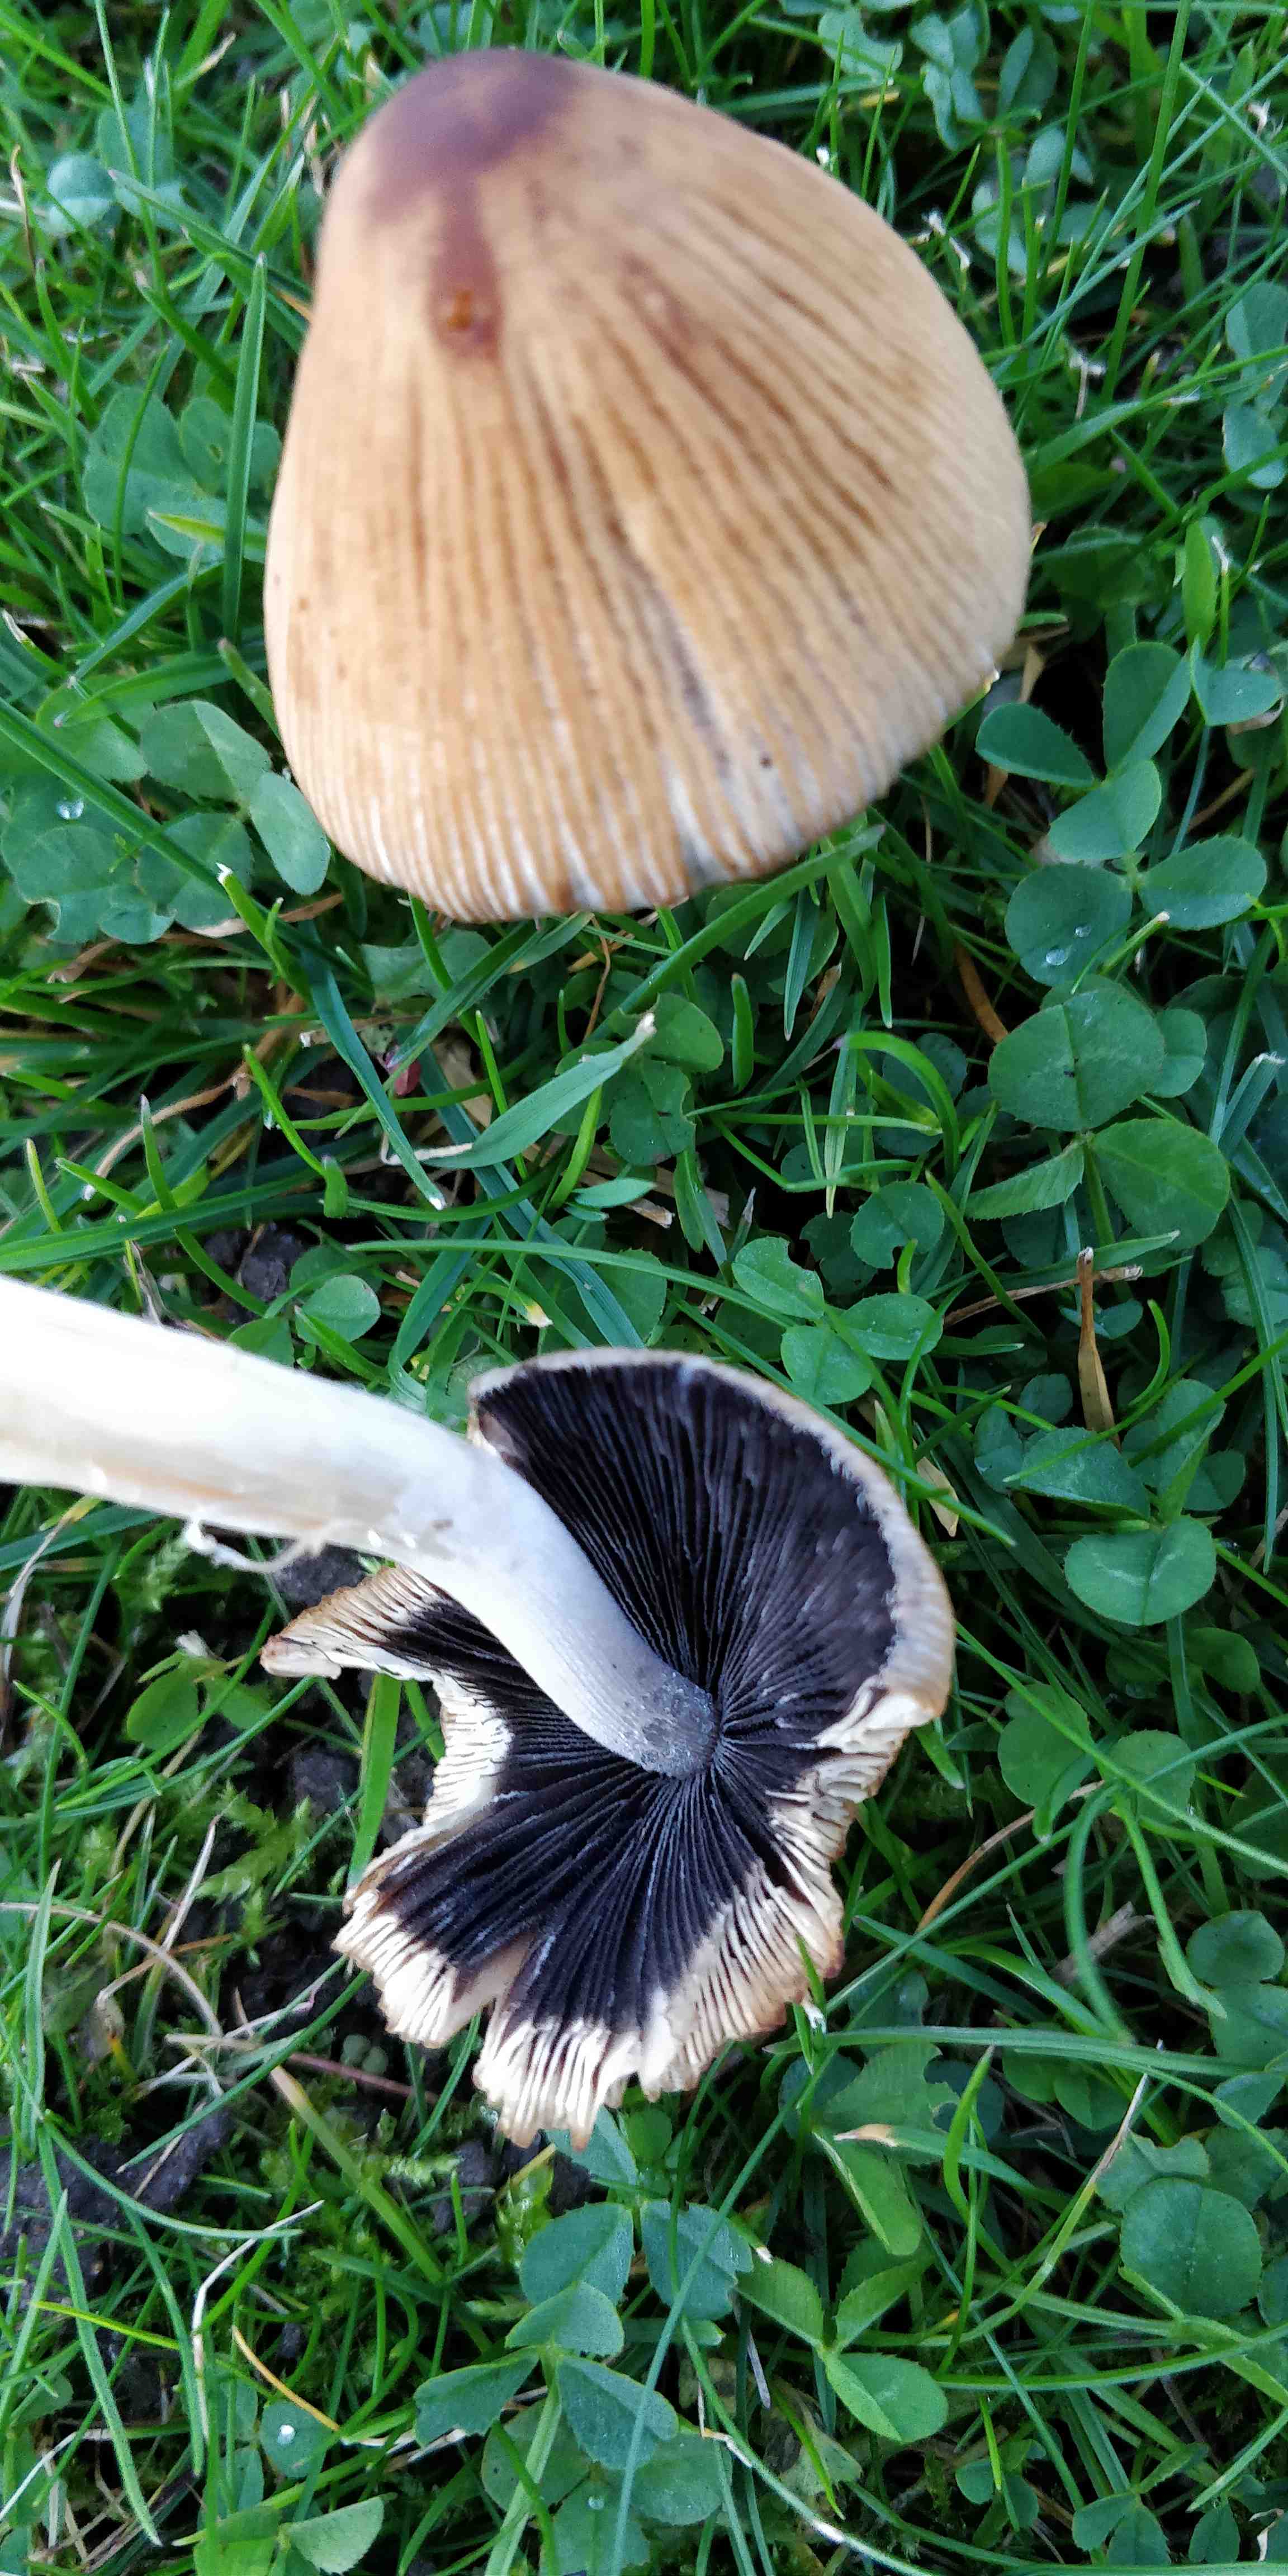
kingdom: Fungi
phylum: Basidiomycota
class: Agaricomycetes
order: Agaricales
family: Psathyrellaceae
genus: Coprinellus
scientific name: Coprinellus
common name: blækhat
